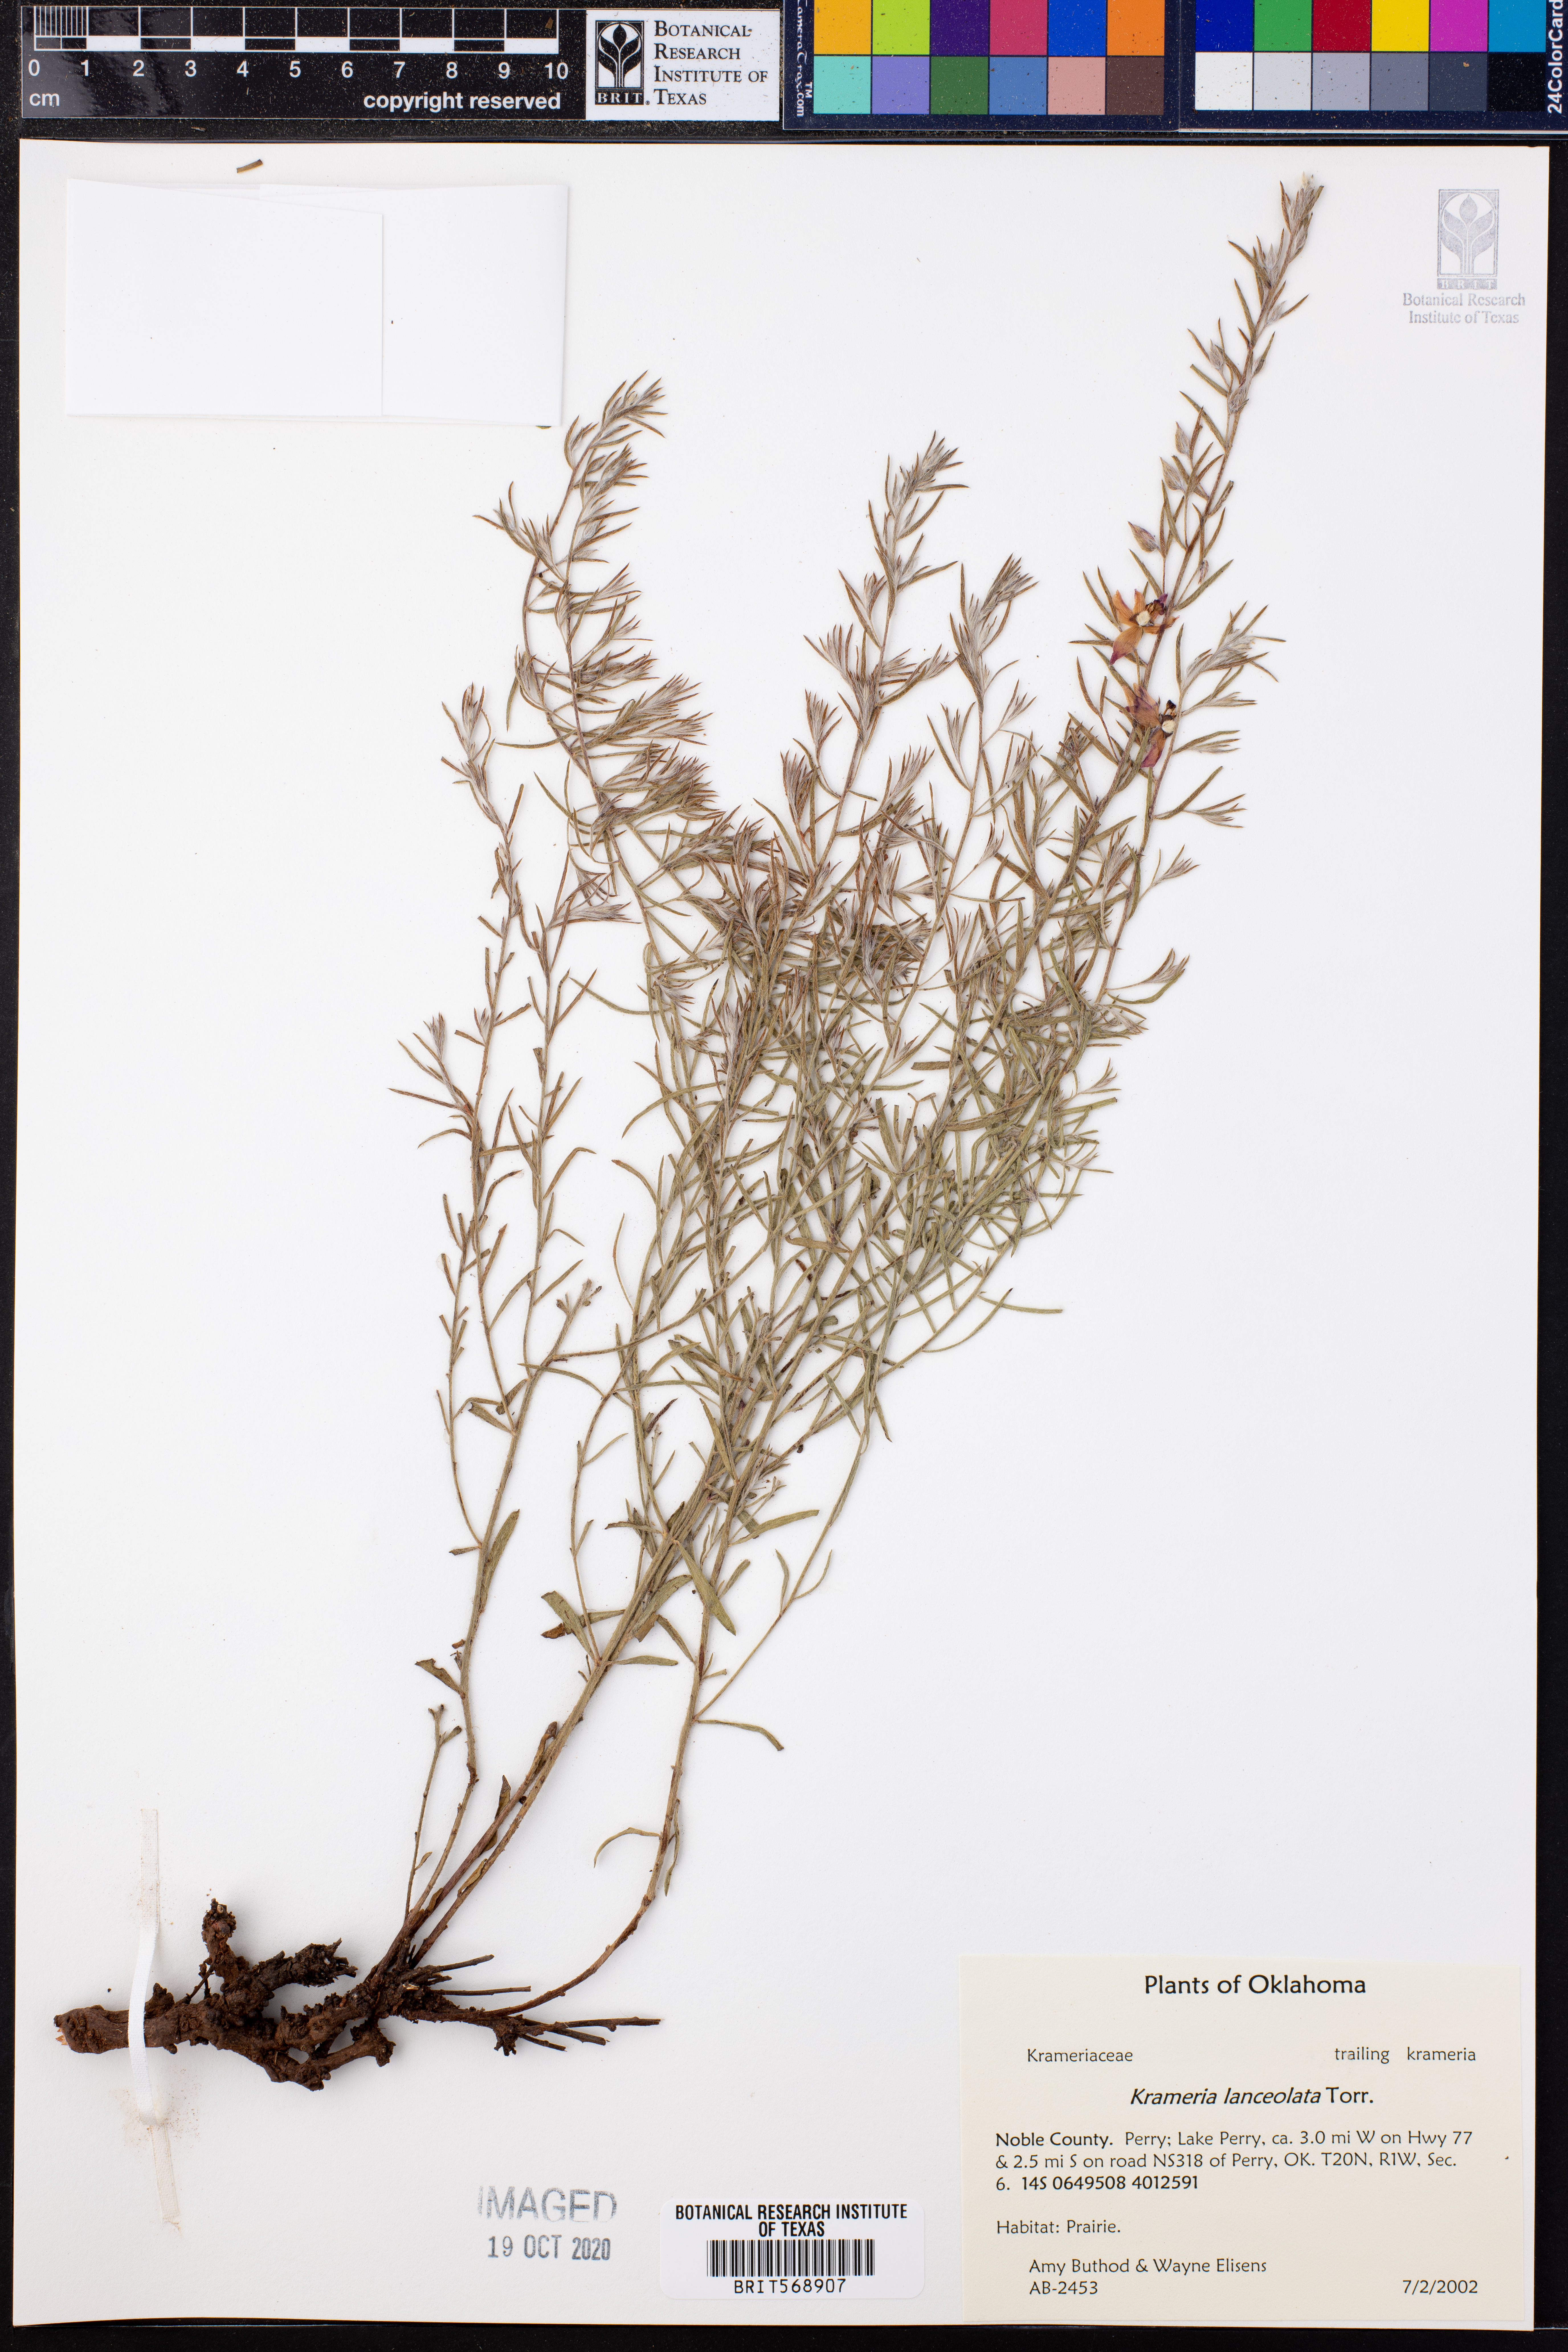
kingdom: Plantae
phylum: Tracheophyta
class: Magnoliopsida
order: Zygophyllales
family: Krameriaceae
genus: Krameria
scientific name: Krameria lanceolata
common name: Ratany
